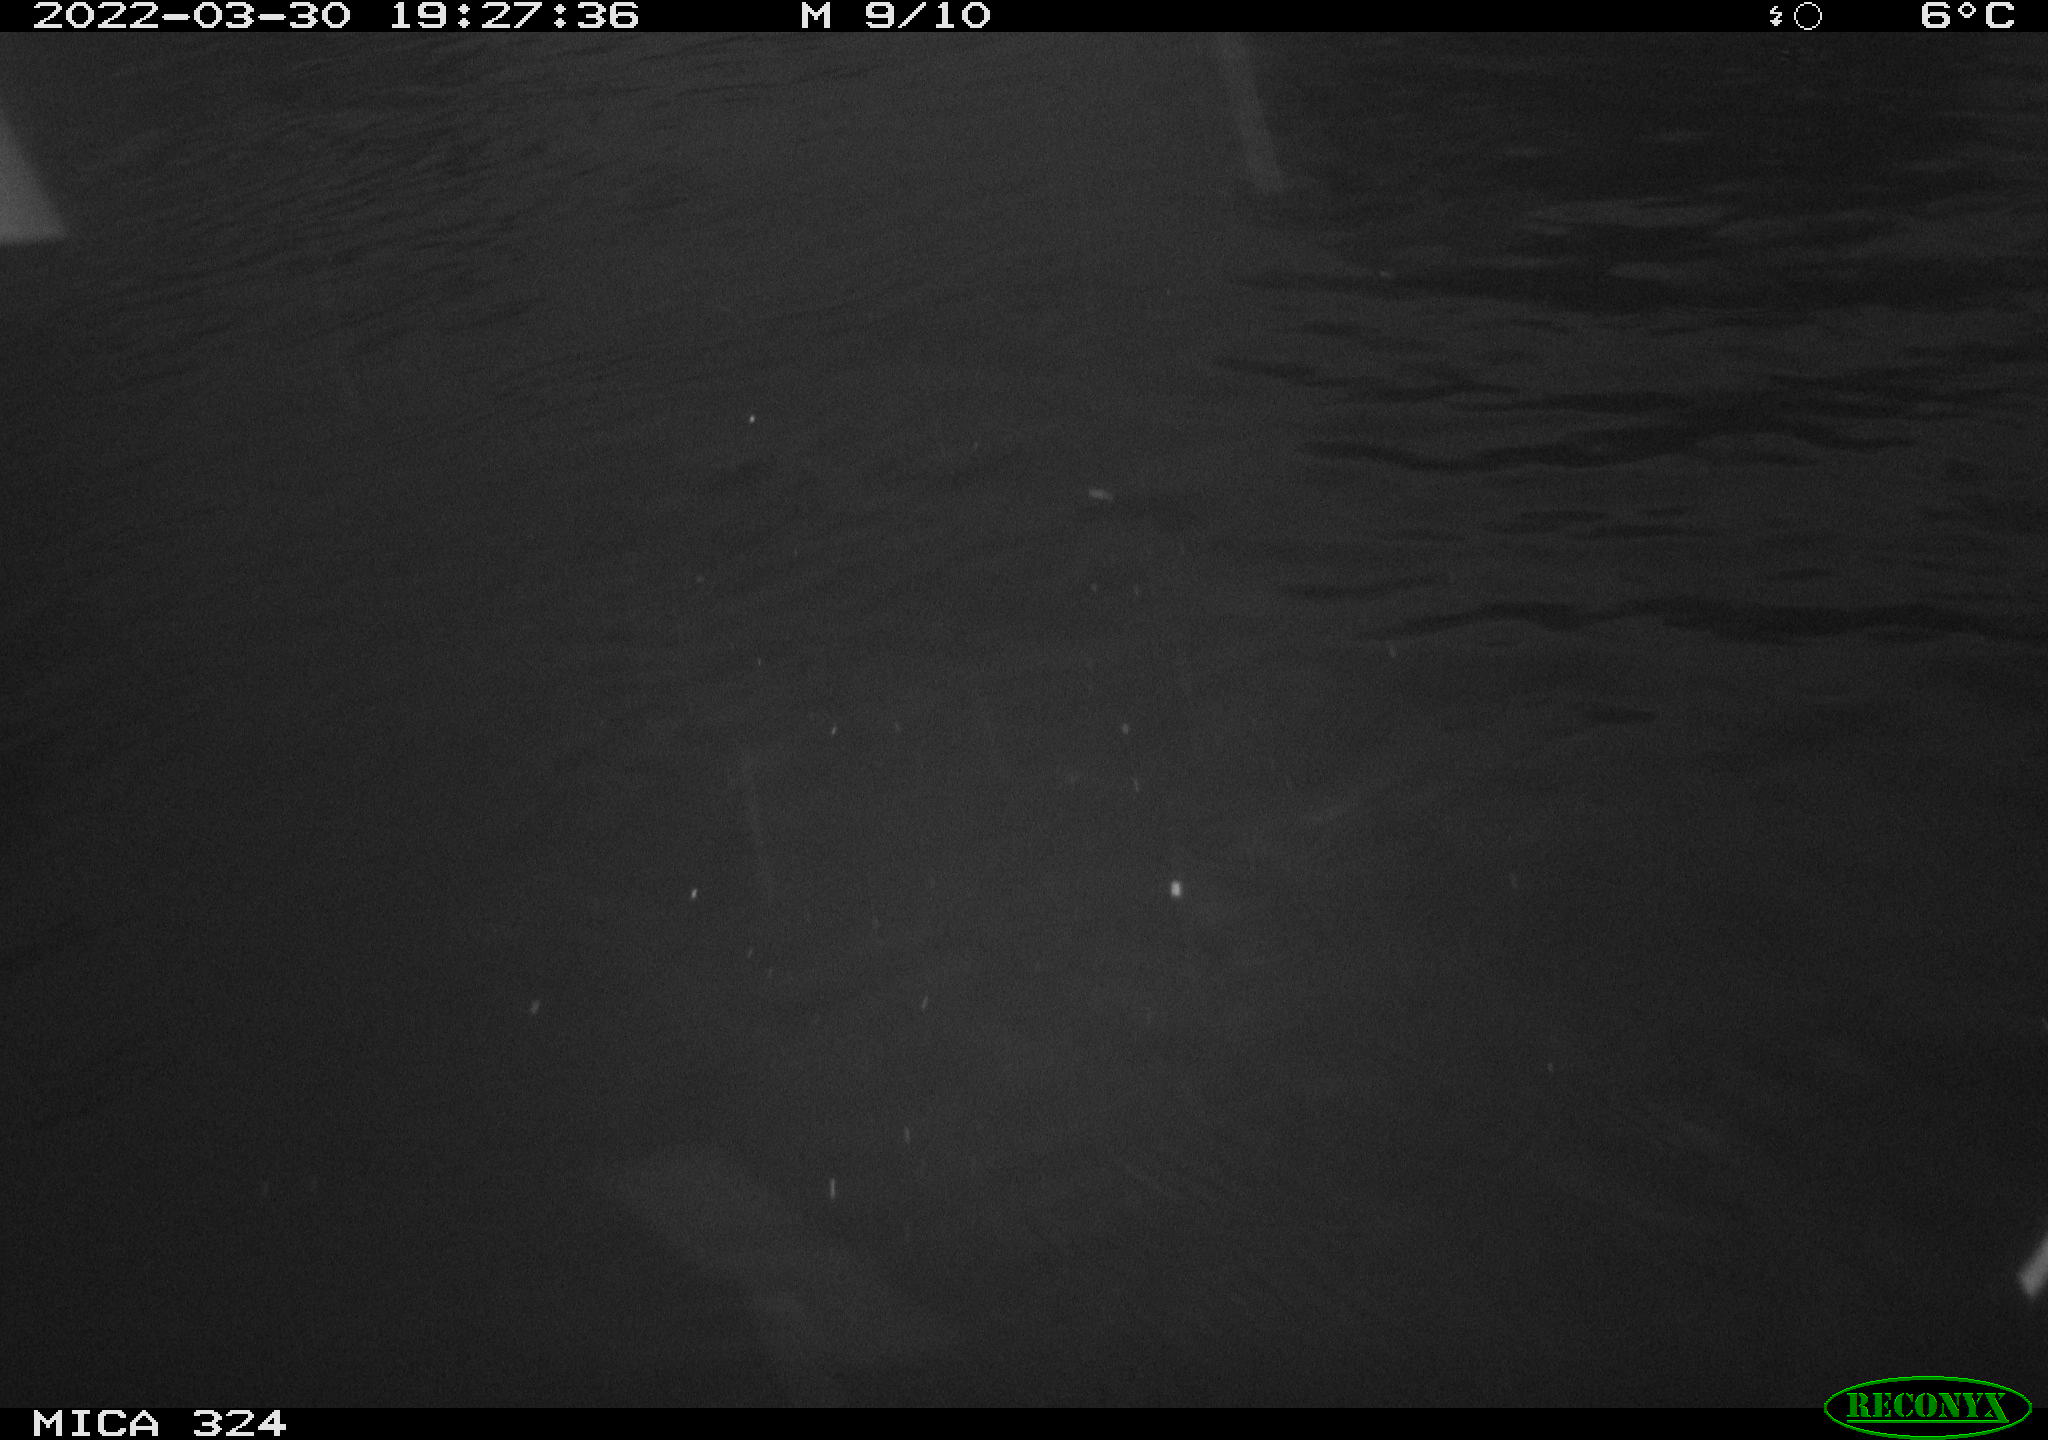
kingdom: Animalia
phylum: Chordata
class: Aves
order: Anseriformes
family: Anatidae
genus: Anas
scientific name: Anas platyrhynchos
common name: Mallard
